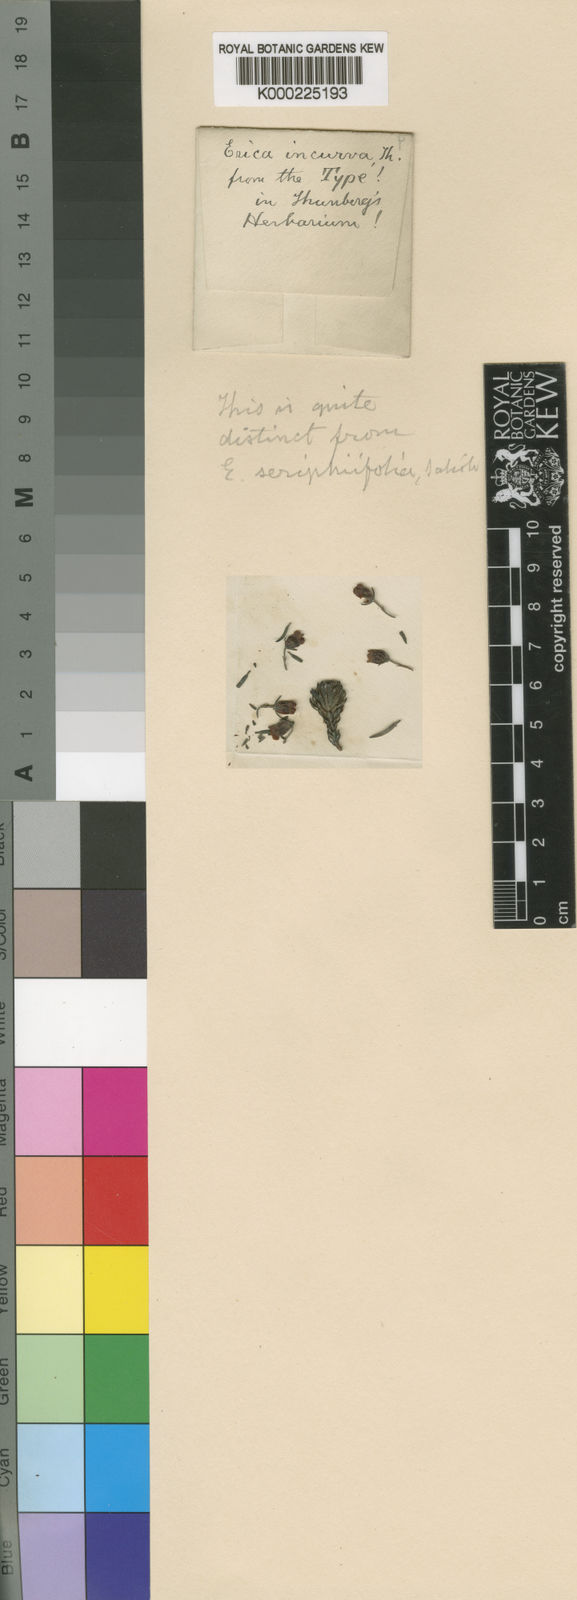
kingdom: Plantae
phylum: Tracheophyta
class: Magnoliopsida
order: Ericales
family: Ericaceae
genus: Erica
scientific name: Erica seriphiifolia
